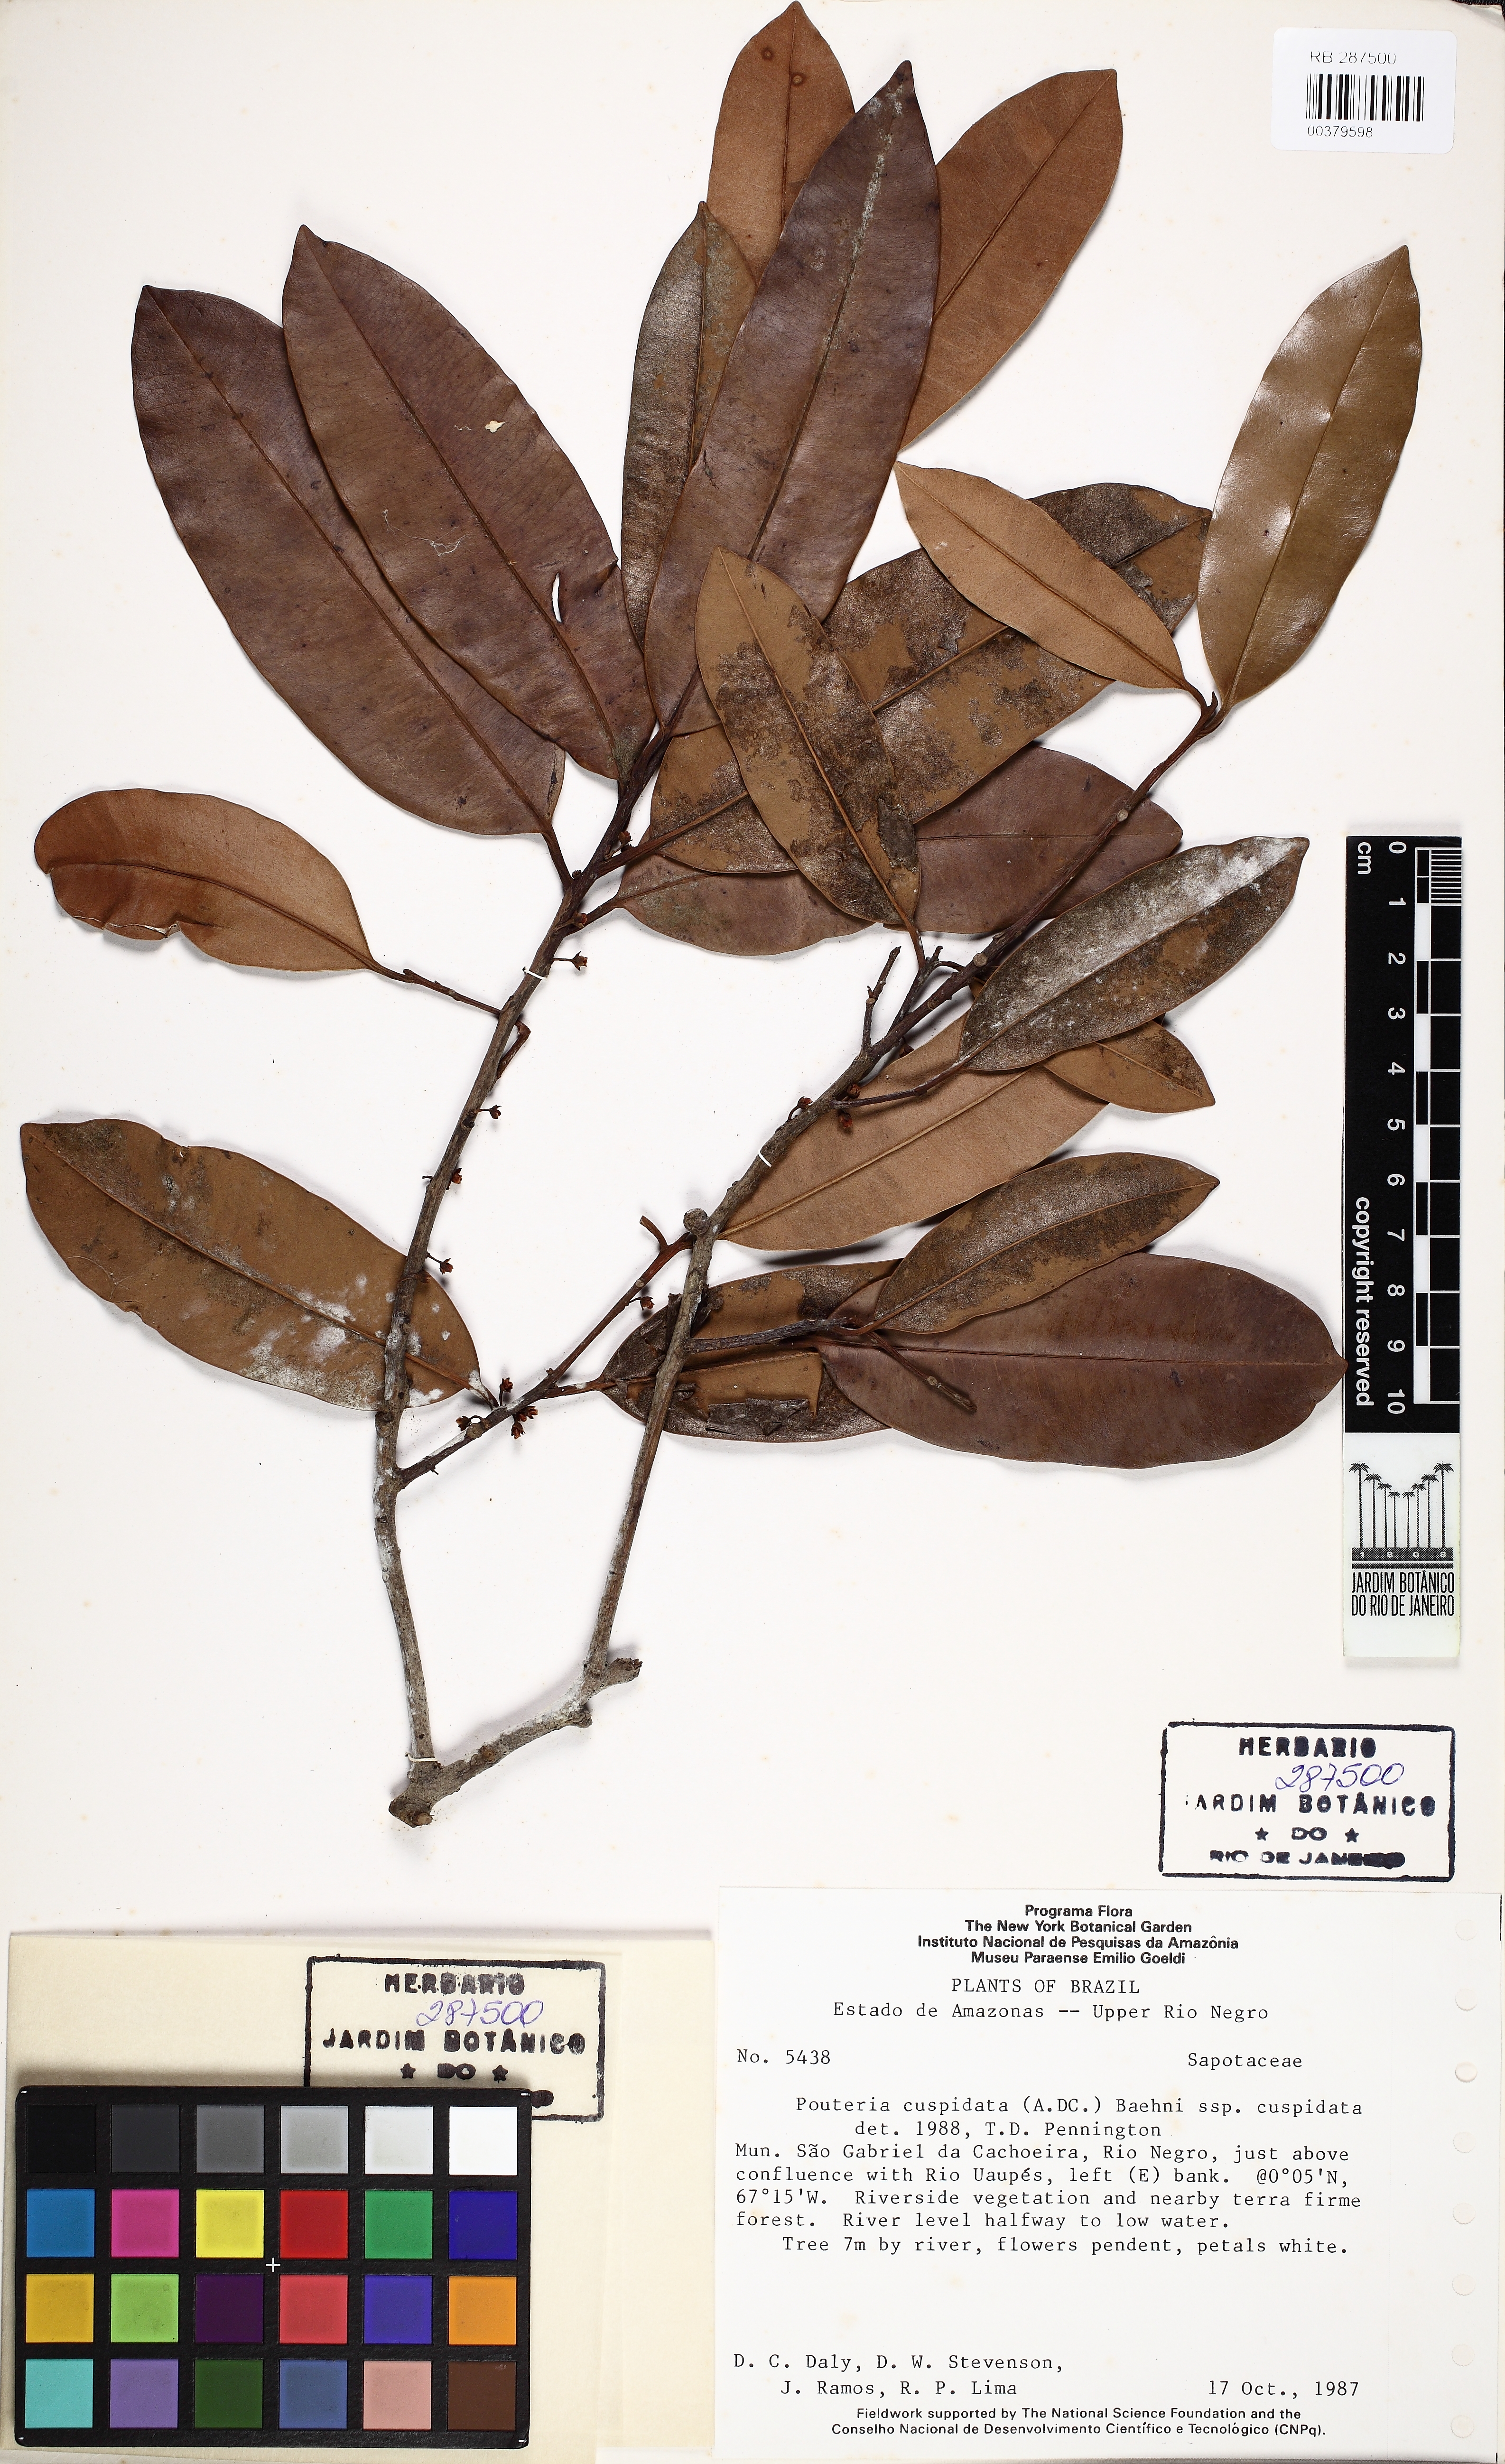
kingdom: Plantae
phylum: Tracheophyta
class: Magnoliopsida
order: Ericales
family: Sapotaceae
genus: Pouteria
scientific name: Pouteria cuspidata
